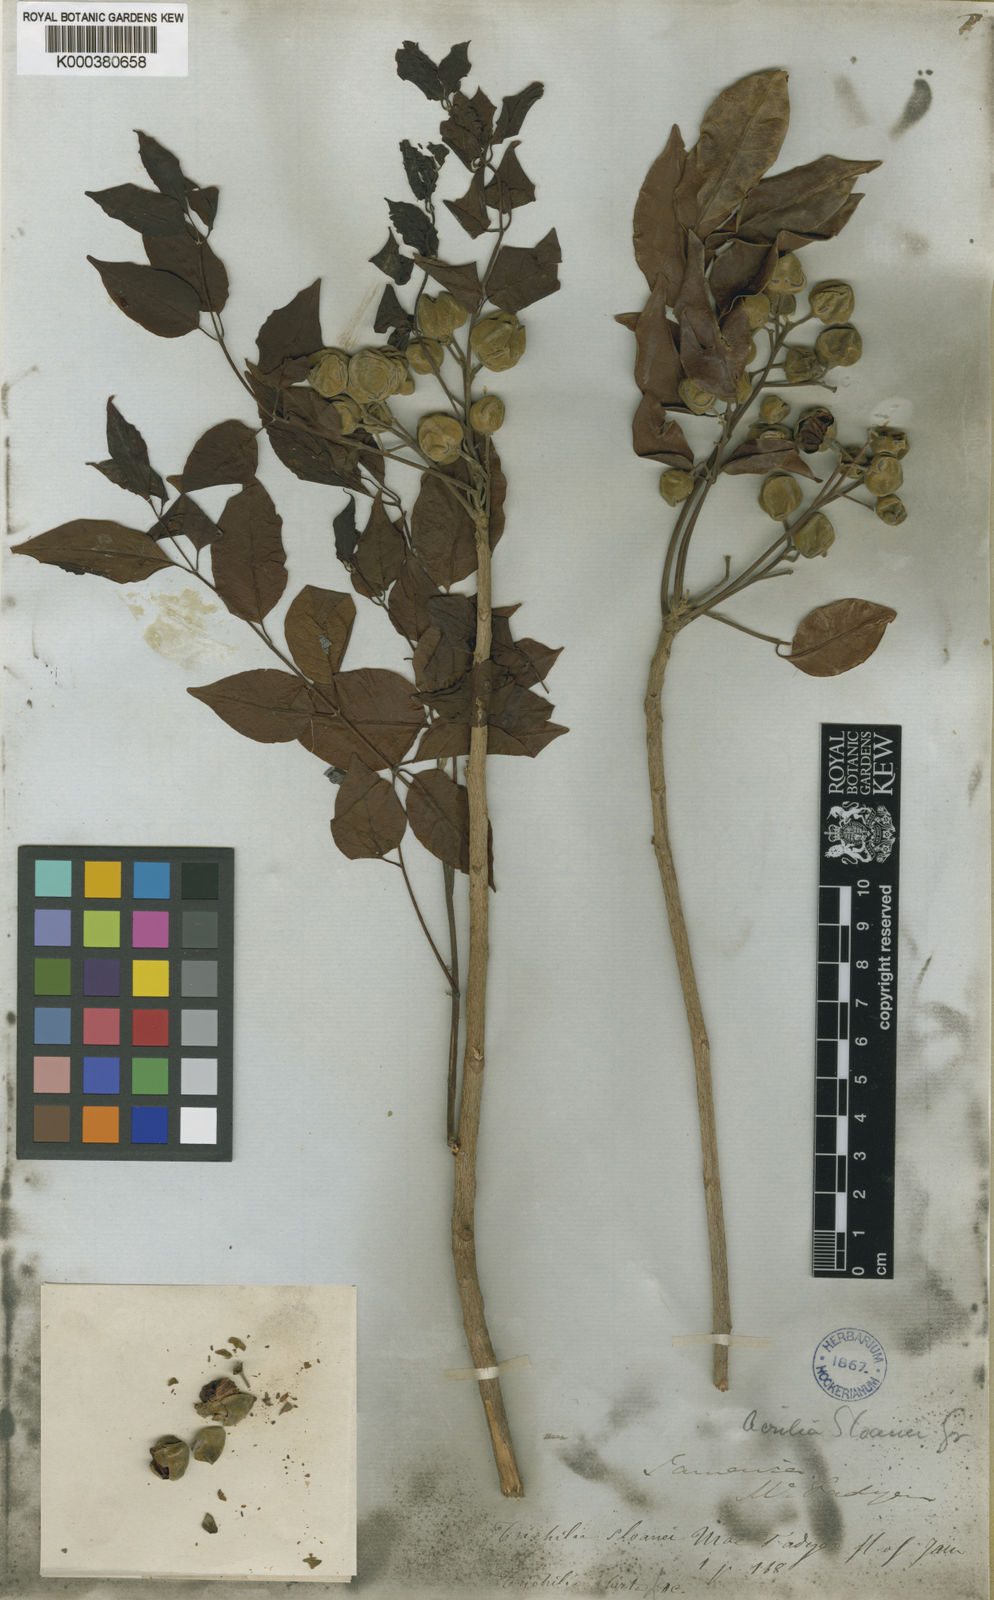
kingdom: Plantae
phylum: Tracheophyta
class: Magnoliopsida
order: Sapindales
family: Meliaceae
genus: Trichilia
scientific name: Trichilia glabra
